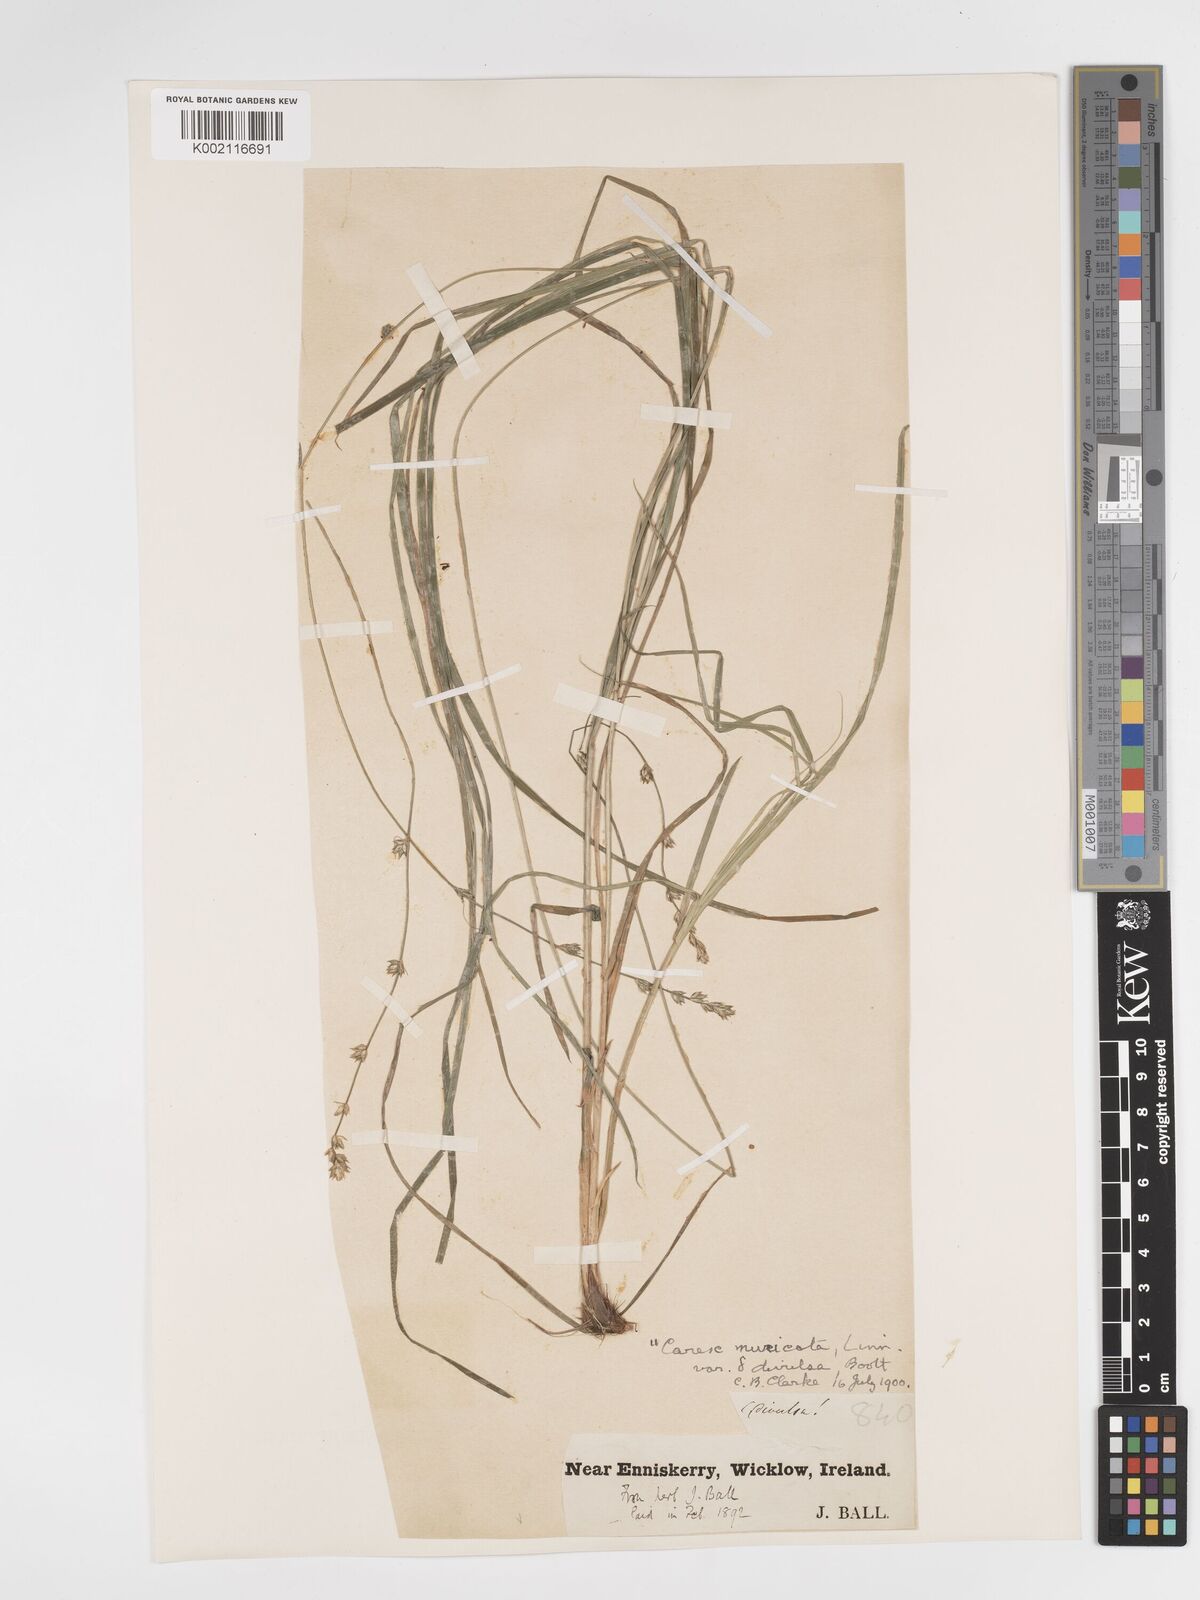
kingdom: Plantae
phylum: Tracheophyta
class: Liliopsida
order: Poales
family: Cyperaceae
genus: Carex
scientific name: Carex divulsa
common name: Grassland sedge
